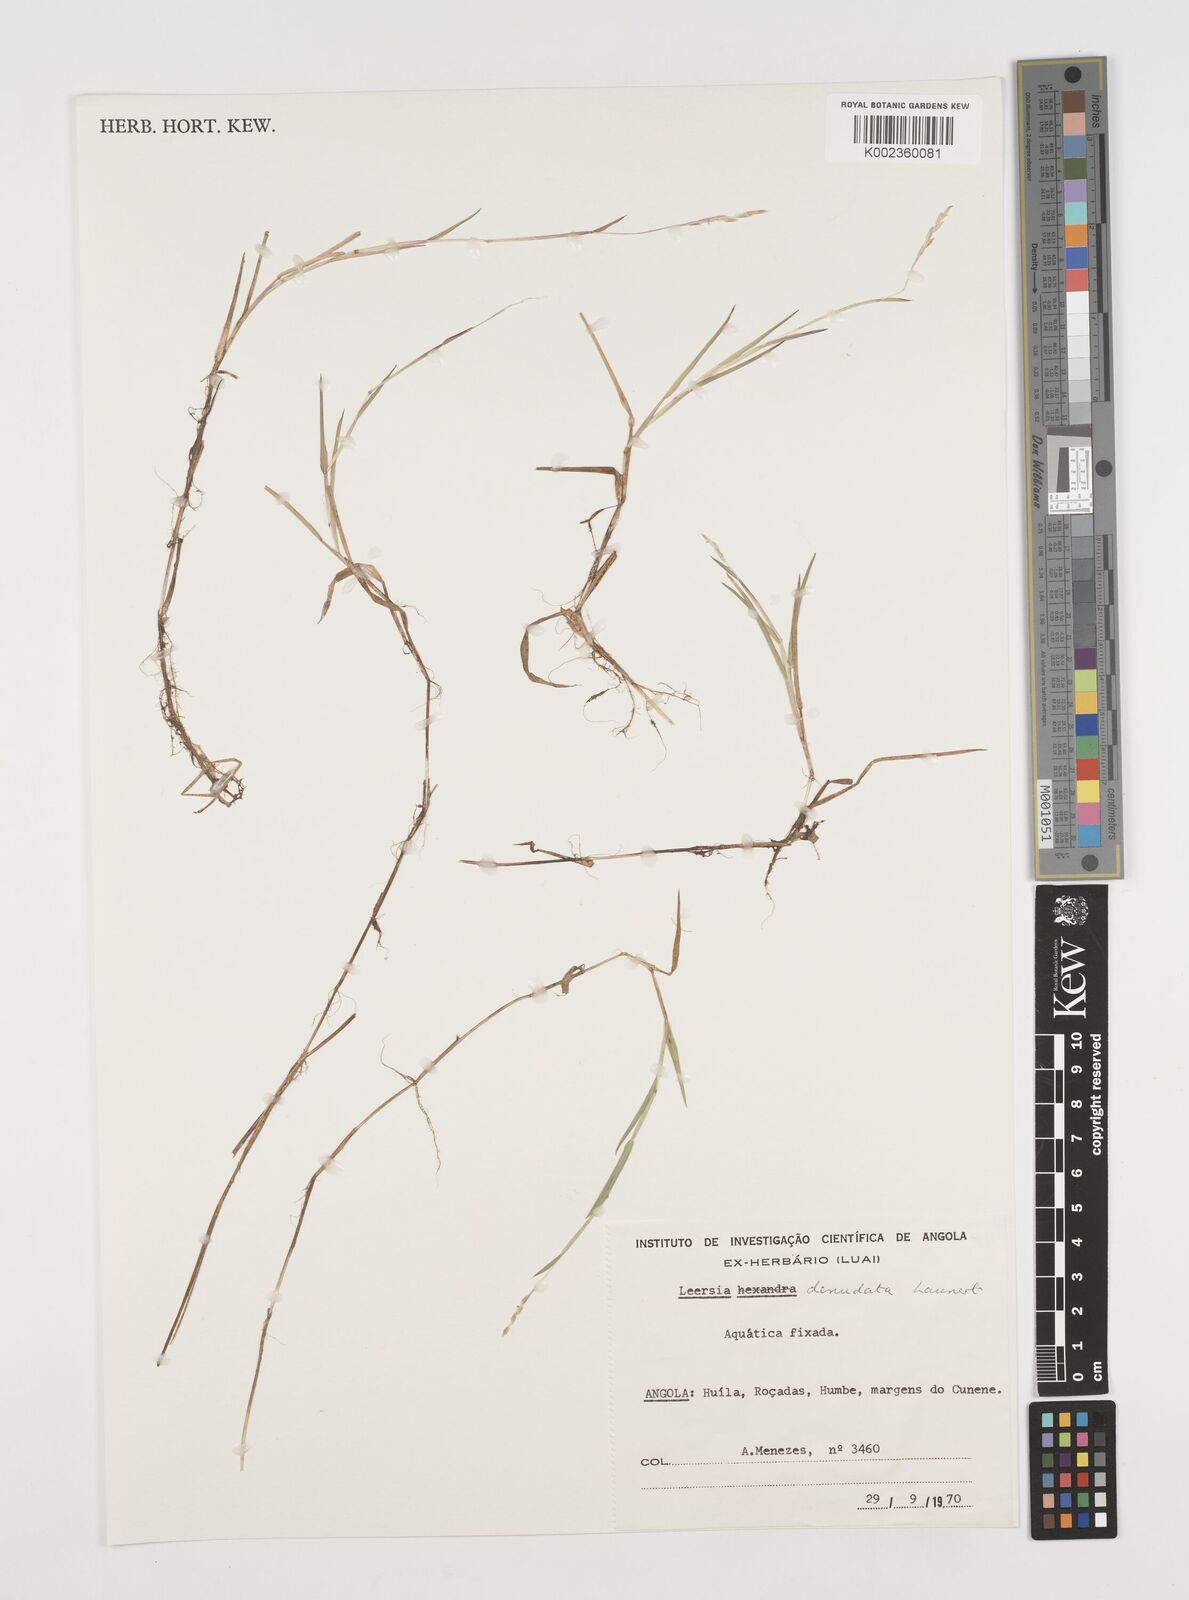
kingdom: Plantae
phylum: Tracheophyta
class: Liliopsida
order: Poales
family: Poaceae
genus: Leersia
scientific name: Leersia denudata
